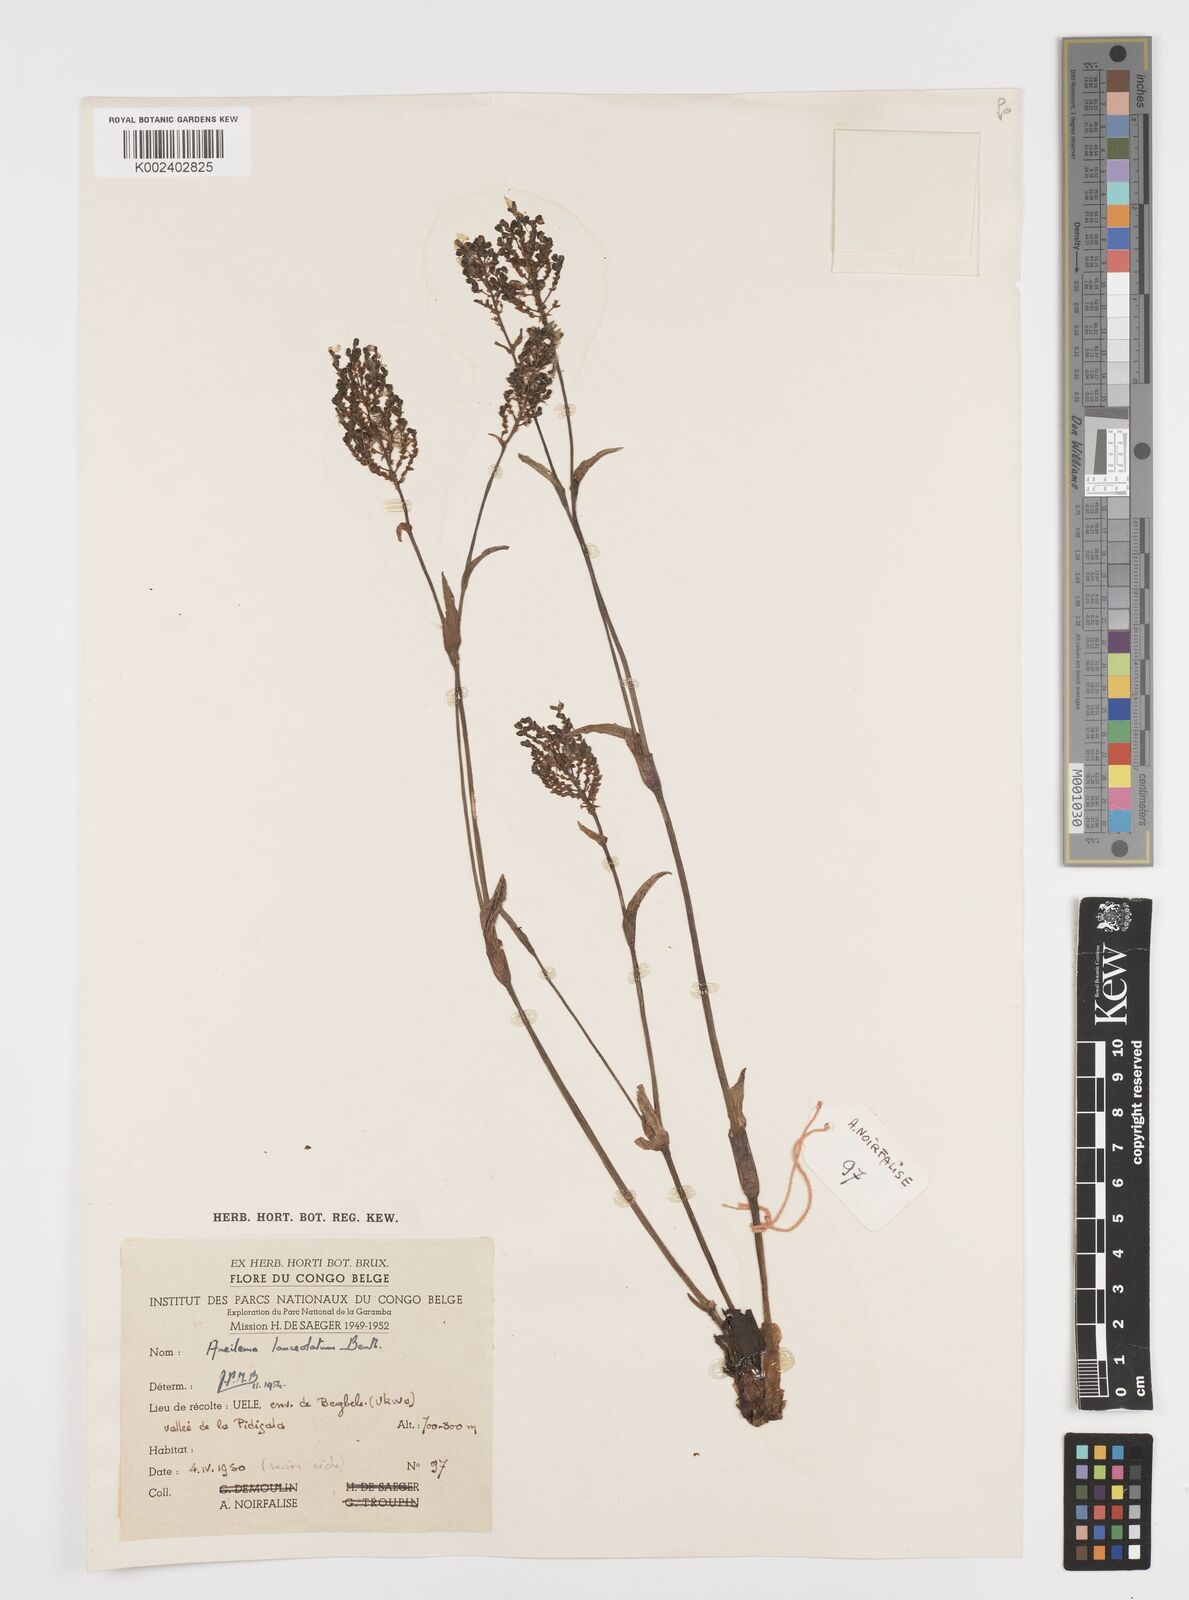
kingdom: Plantae
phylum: Tracheophyta
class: Liliopsida
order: Commelinales
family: Commelinaceae
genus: Aneilema
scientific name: Aneilema lanceolatum
